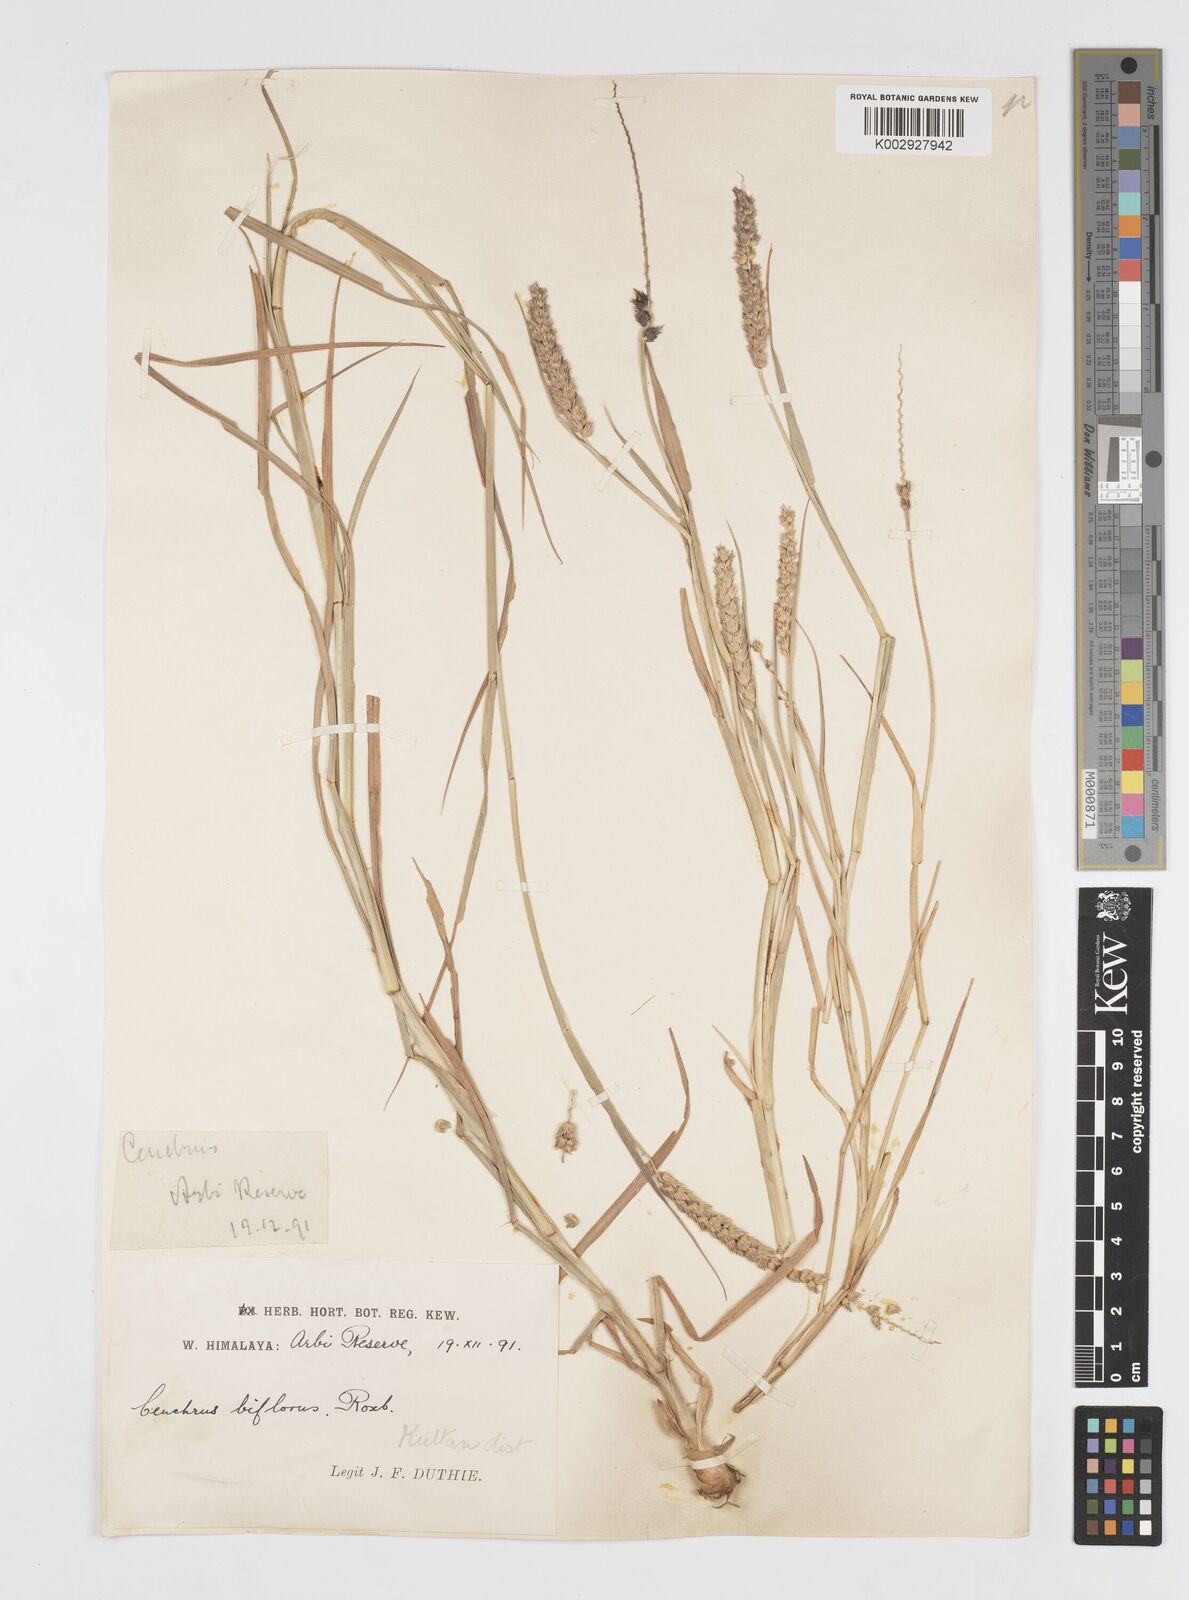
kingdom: Plantae
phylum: Tracheophyta
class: Liliopsida
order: Poales
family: Poaceae
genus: Cenchrus
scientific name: Cenchrus setigerus
